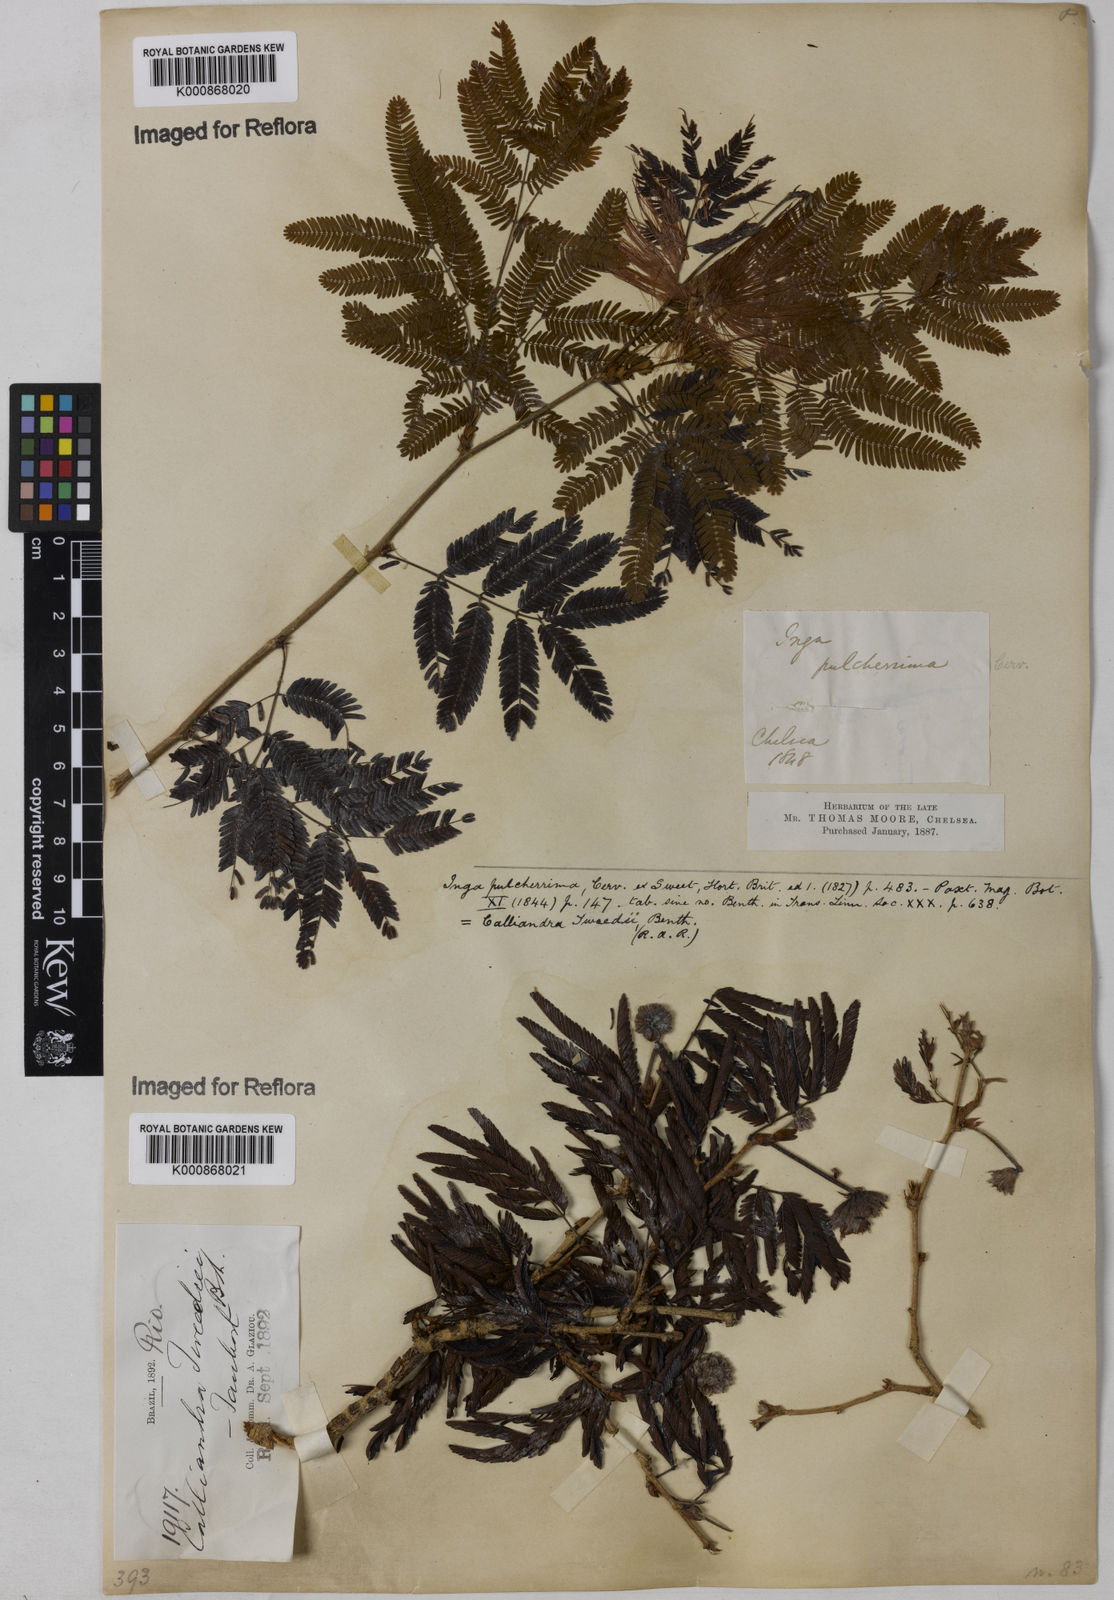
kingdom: Plantae
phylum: Tracheophyta
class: Magnoliopsida
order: Fabales
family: Fabaceae
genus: Calliandra
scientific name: Calliandra tweediei
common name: Mexican flamebush
